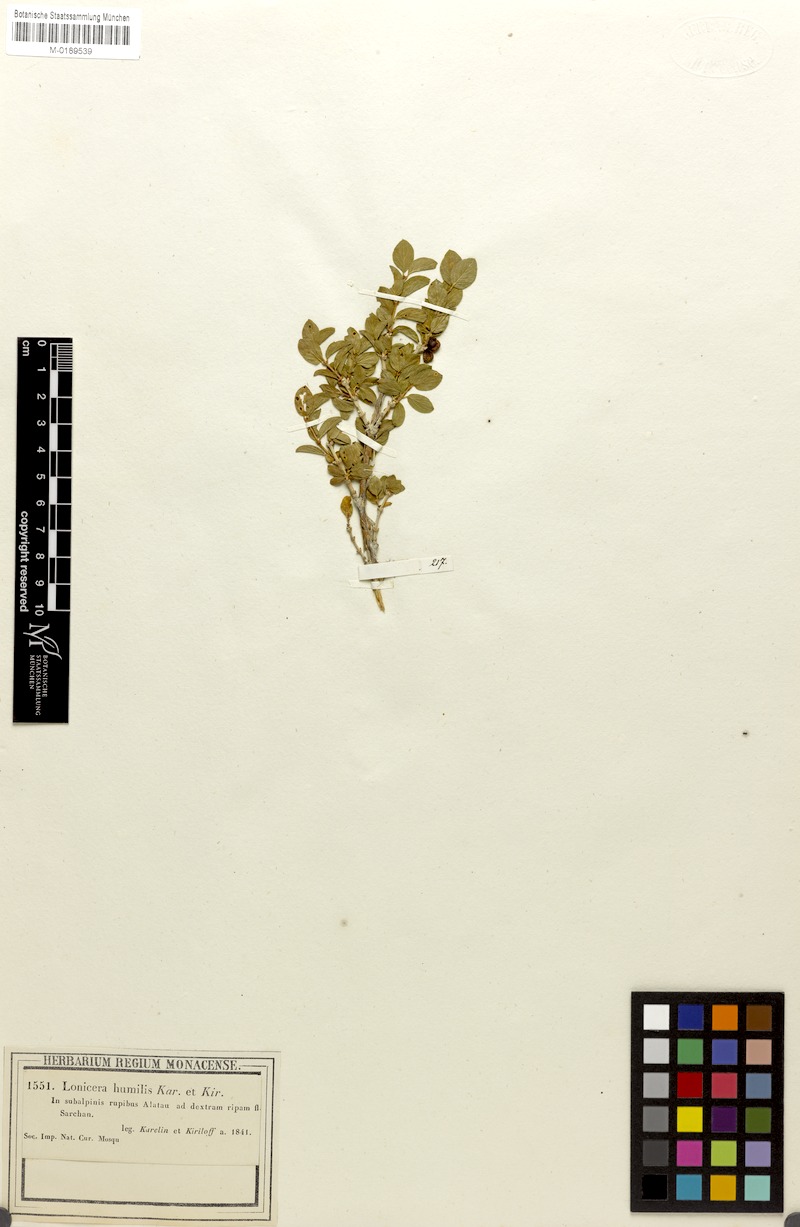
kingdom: Plantae
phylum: Tracheophyta
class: Magnoliopsida
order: Dipsacales
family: Caprifoliaceae
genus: Lonicera
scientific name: Lonicera humilis
